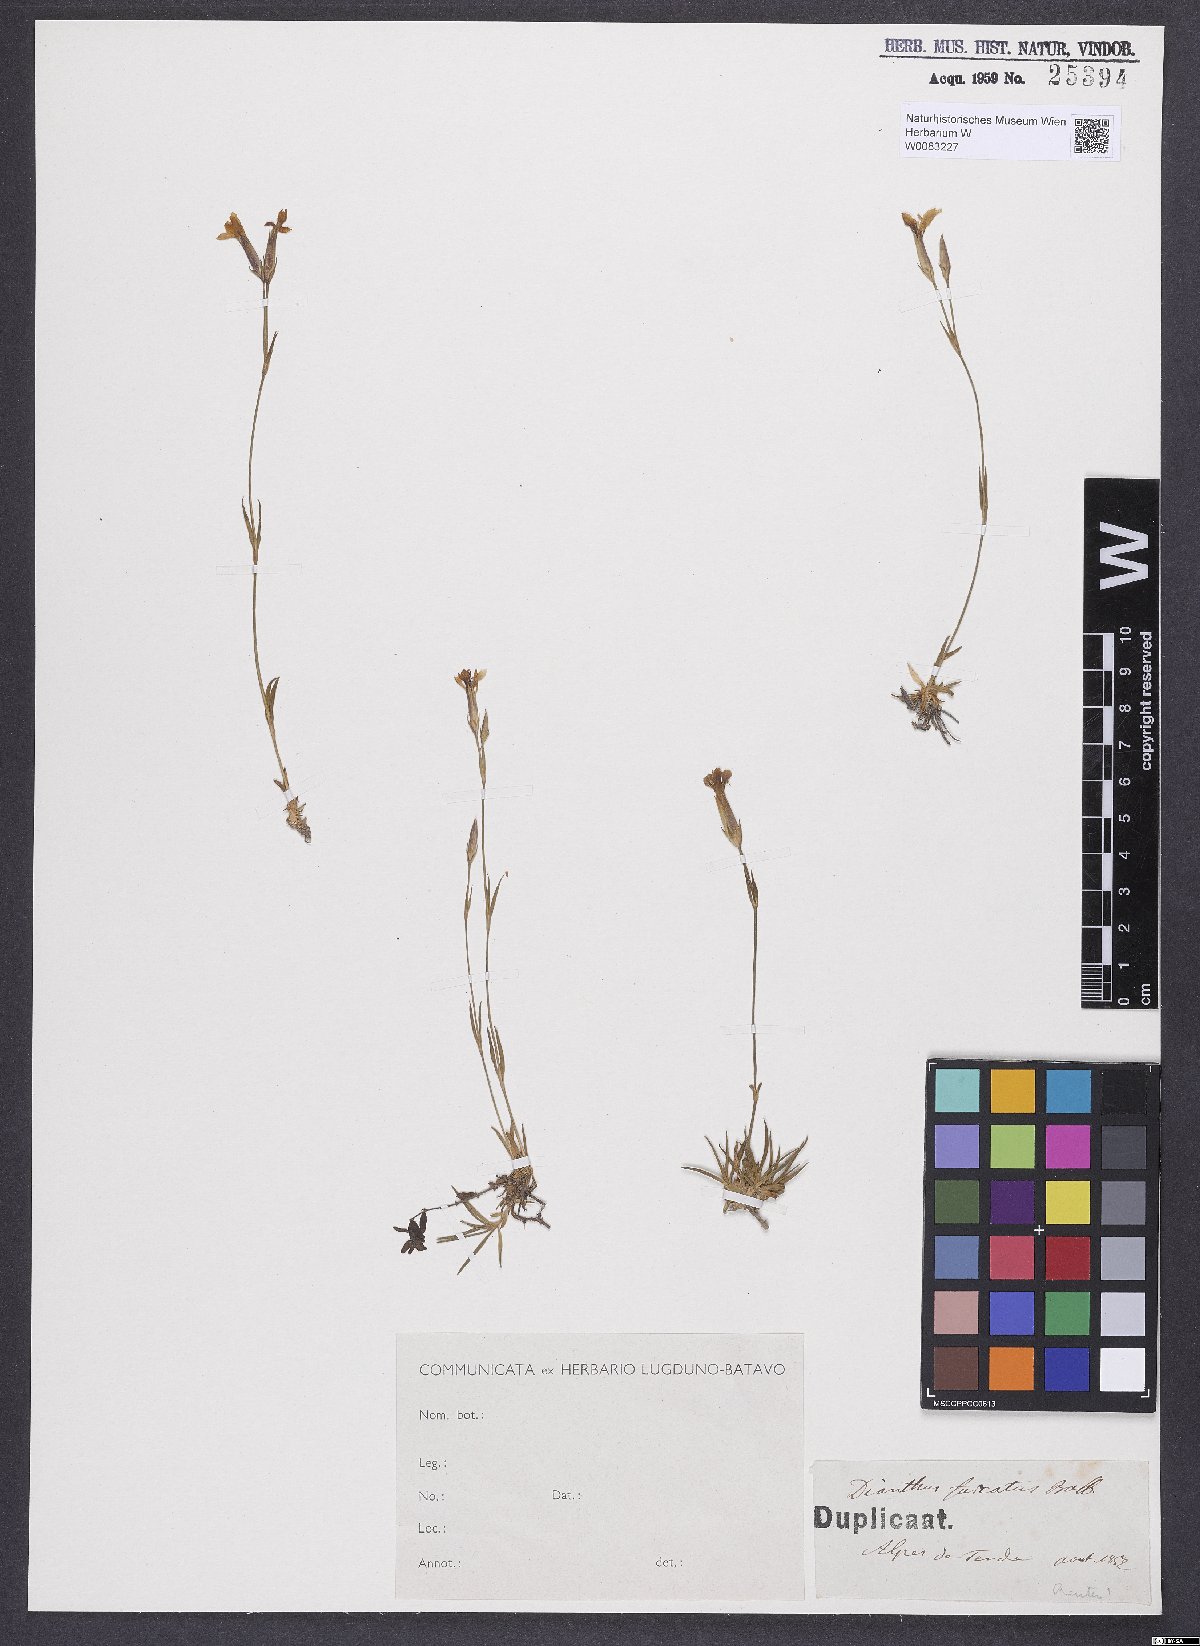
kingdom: Plantae
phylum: Tracheophyta
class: Magnoliopsida
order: Caryophyllales
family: Caryophyllaceae
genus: Dianthus
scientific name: Dianthus furcatus
